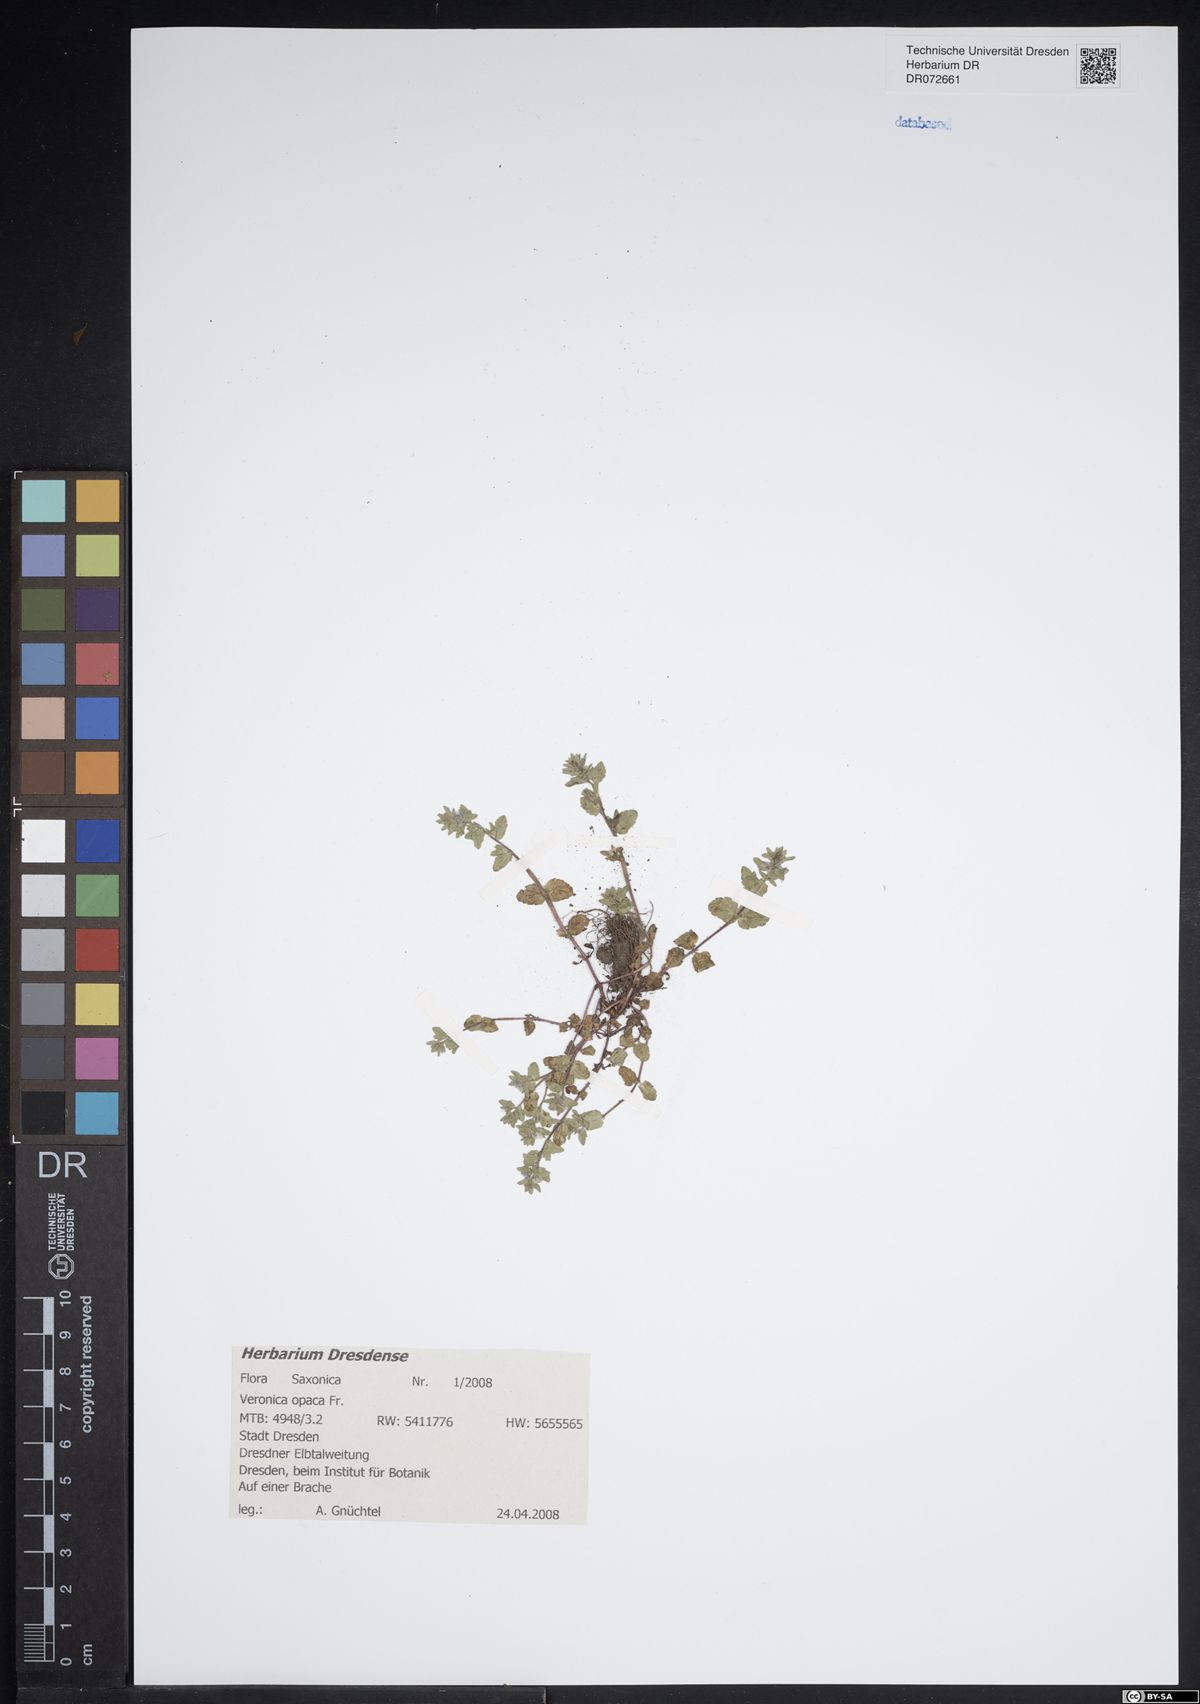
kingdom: Plantae
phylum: Tracheophyta
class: Magnoliopsida
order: Lamiales
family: Plantaginaceae
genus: Veronica
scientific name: Veronica opaca
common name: Dark speedwell
